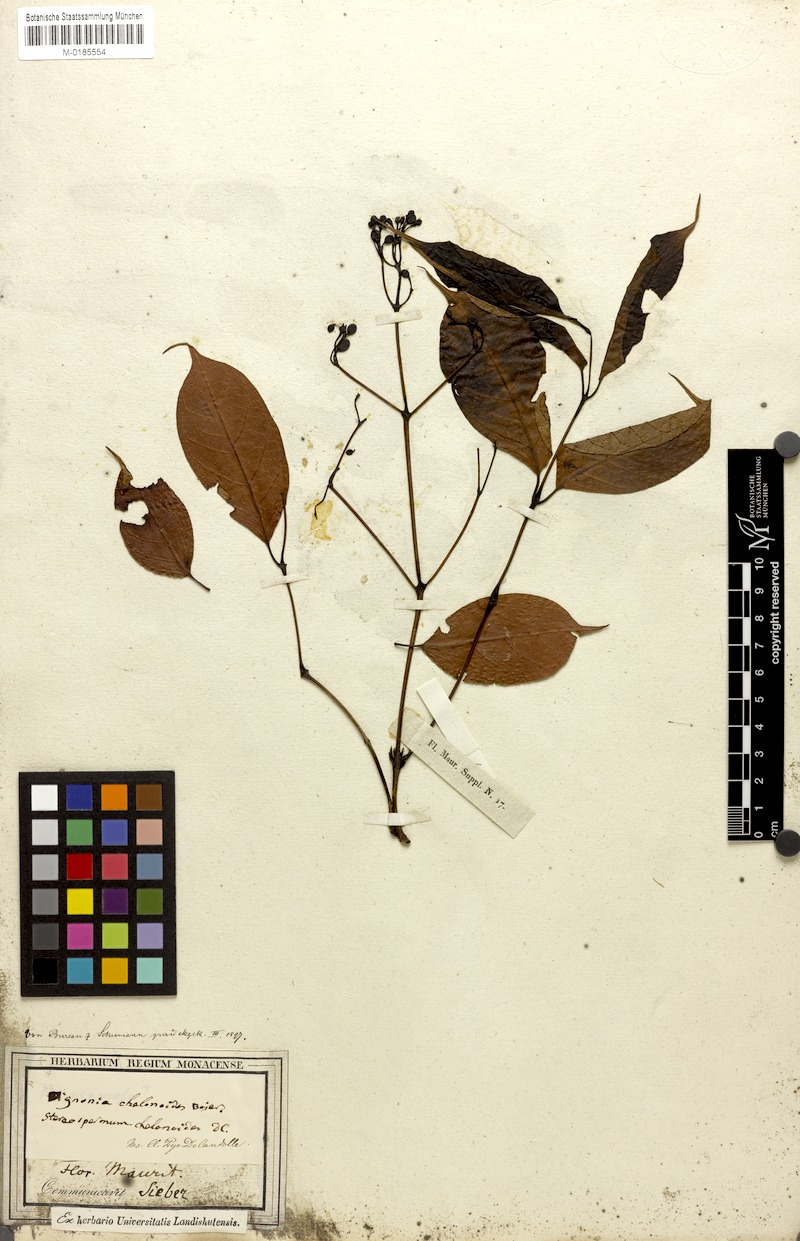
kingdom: Plantae
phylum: Tracheophyta
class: Magnoliopsida
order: Lamiales
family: Bignoniaceae
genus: Stereospermum
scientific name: Stereospermum chelonoides
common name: Fragrant padritree
